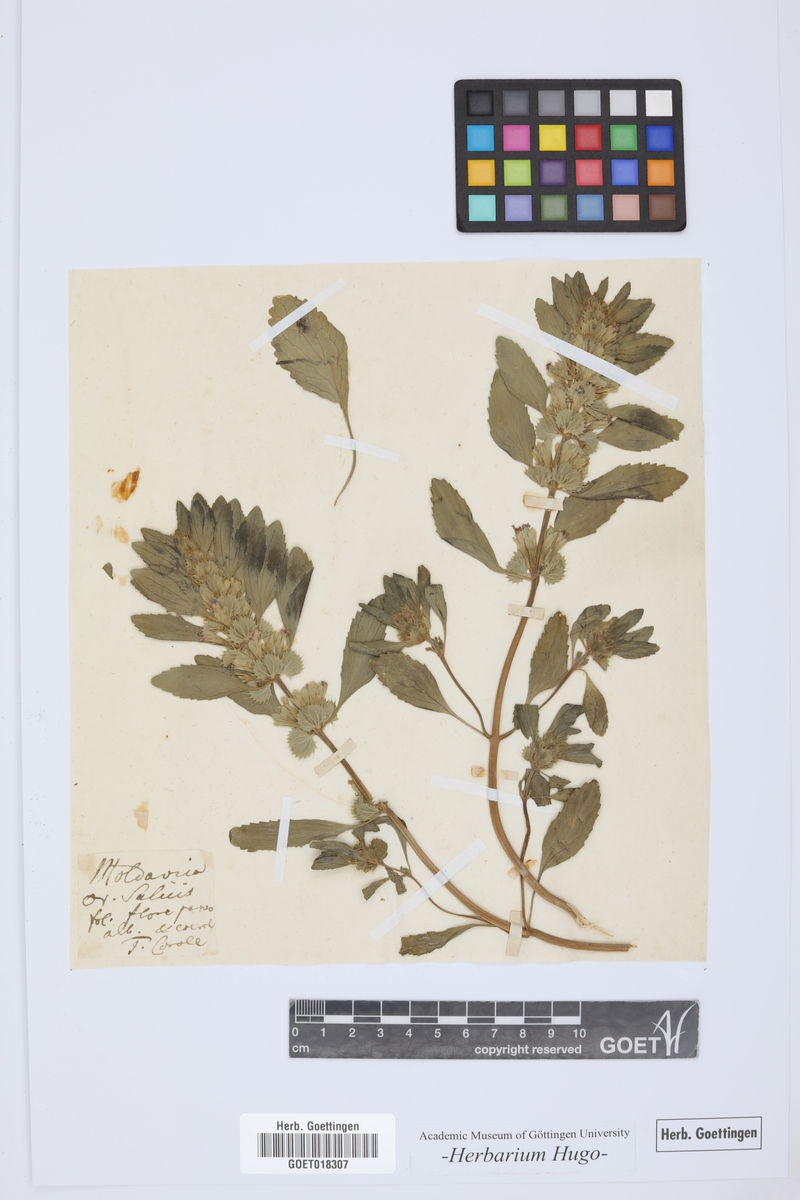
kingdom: Plantae
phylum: Tracheophyta
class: Magnoliopsida
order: Lamiales
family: Lamiaceae
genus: Lallemantia
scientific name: Lallemantia peltata
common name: Lion's heart
